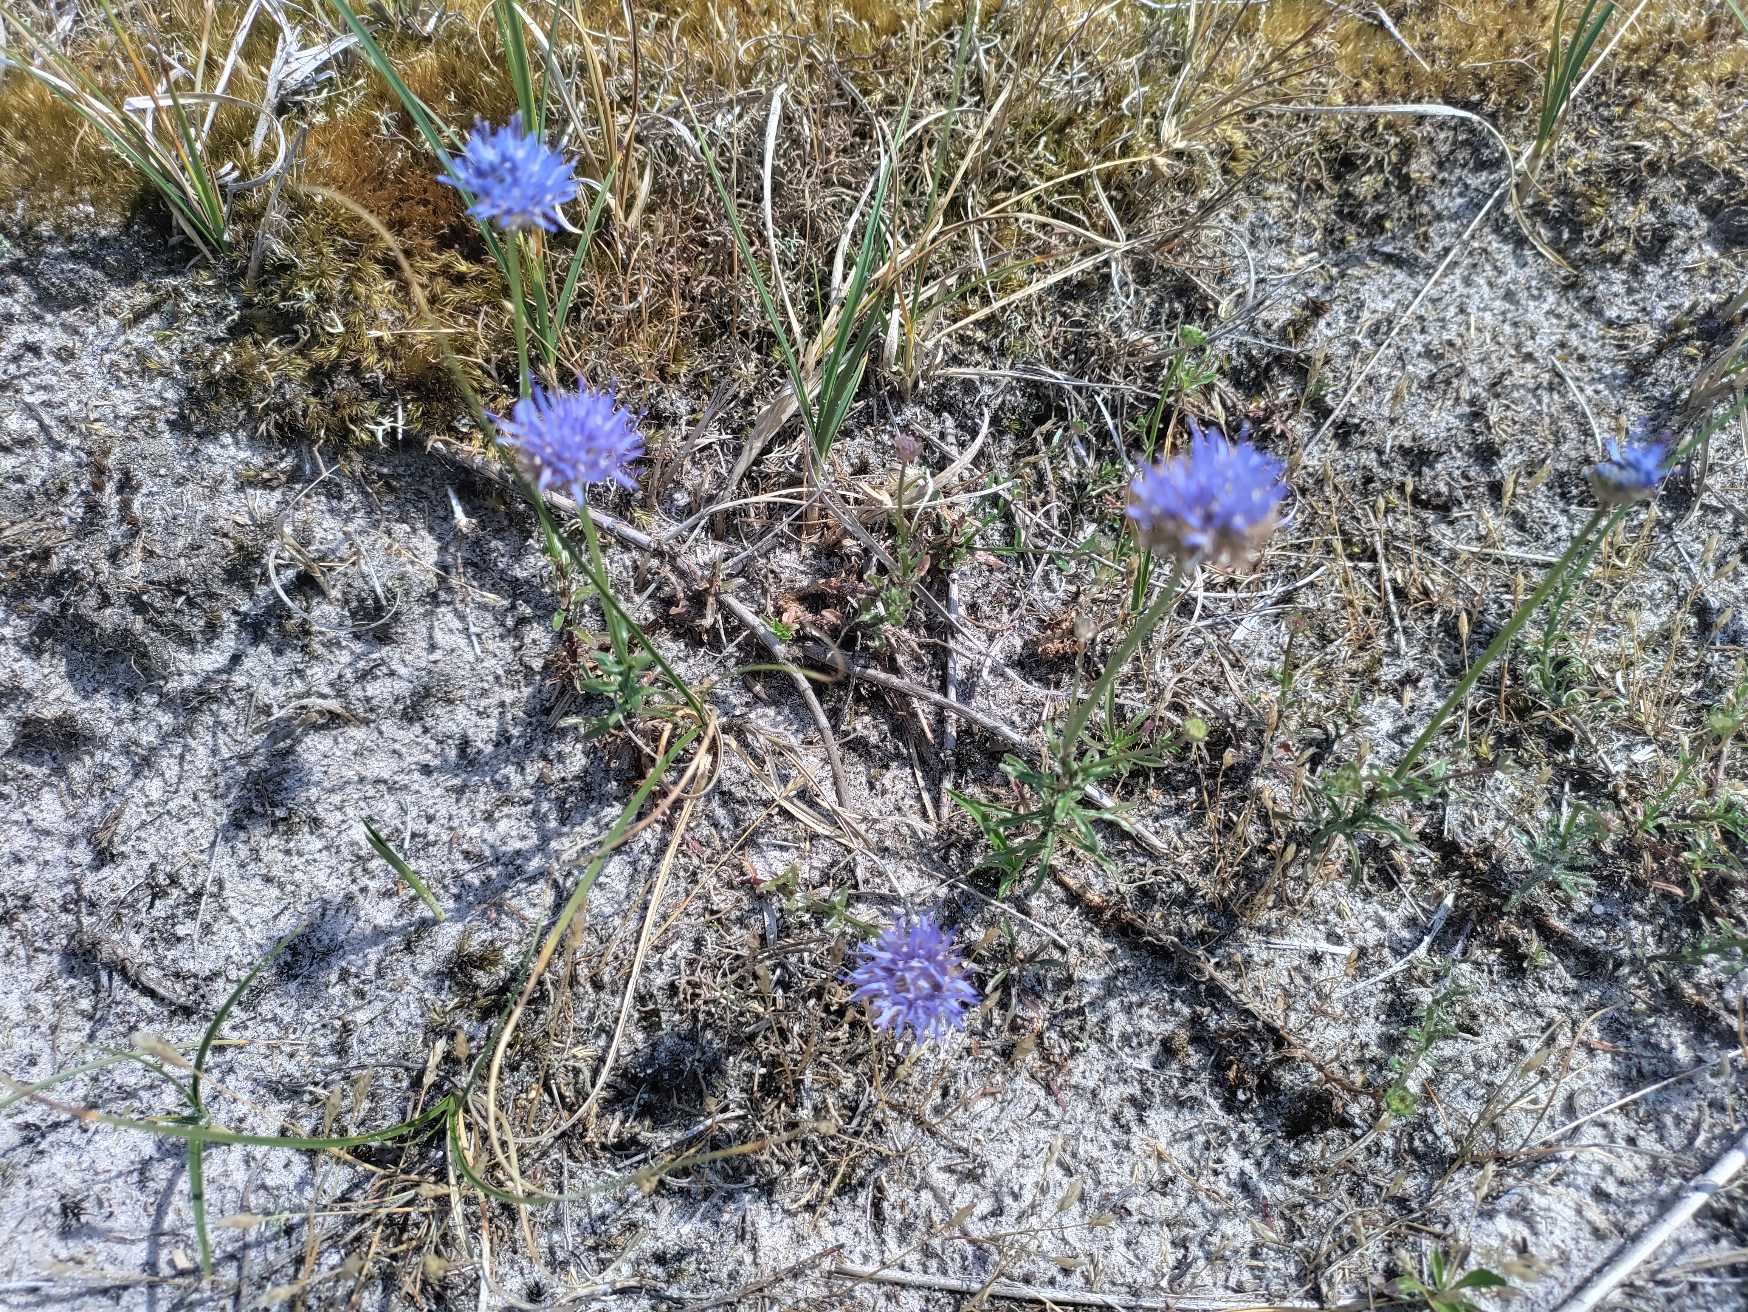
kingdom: Plantae
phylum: Tracheophyta
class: Magnoliopsida
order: Asterales
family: Campanulaceae
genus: Jasione
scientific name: Jasione montana
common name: Blåmunke
